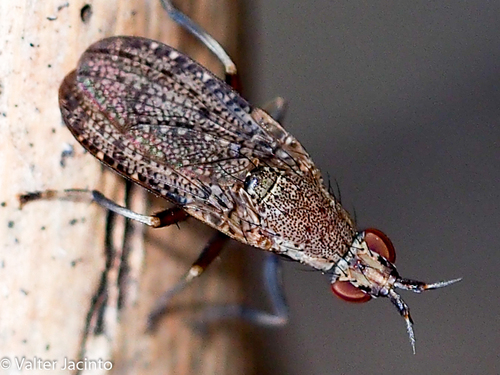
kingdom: Animalia
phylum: Arthropoda
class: Insecta
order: Diptera
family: Sciomyzidae
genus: Euthycera
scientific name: Euthycera cribrata
